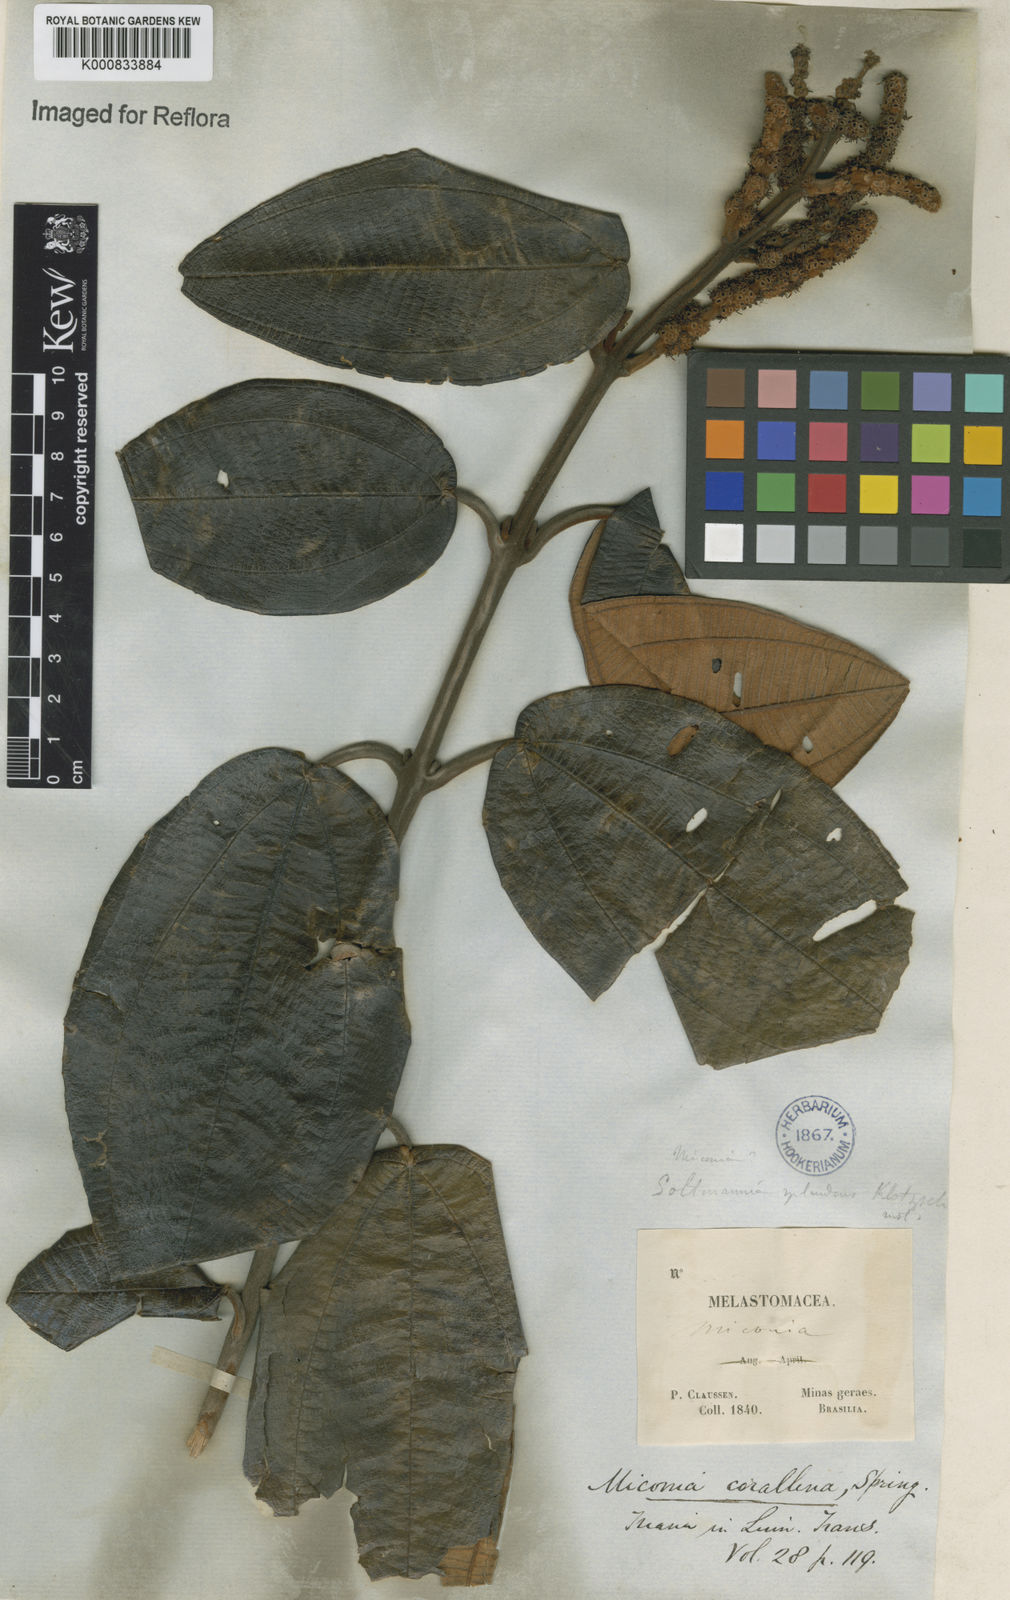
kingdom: Plantae
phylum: Tracheophyta
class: Magnoliopsida
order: Myrtales
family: Melastomataceae
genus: Miconia
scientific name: Miconia
